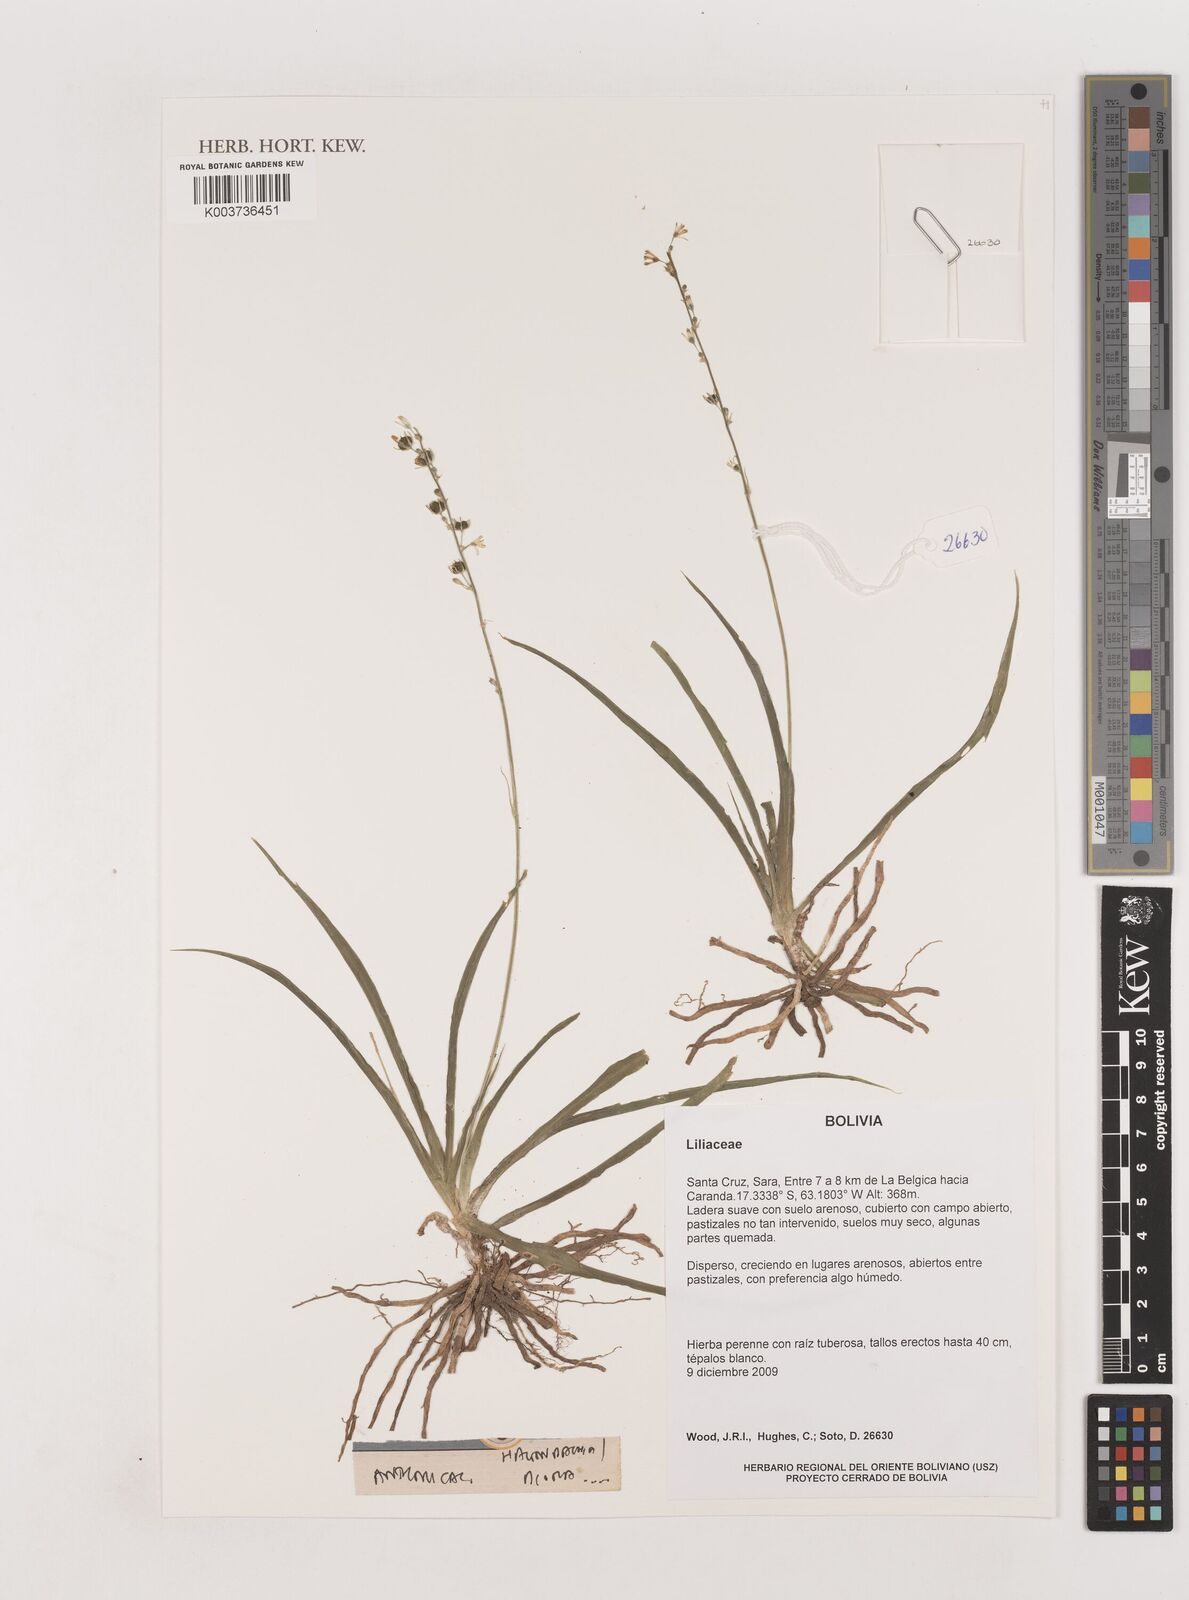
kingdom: Plantae
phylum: Tracheophyta
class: Liliopsida
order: Asparagales
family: Asparagaceae
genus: Hagenbachia
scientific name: Hagenbachia matogrossensis
